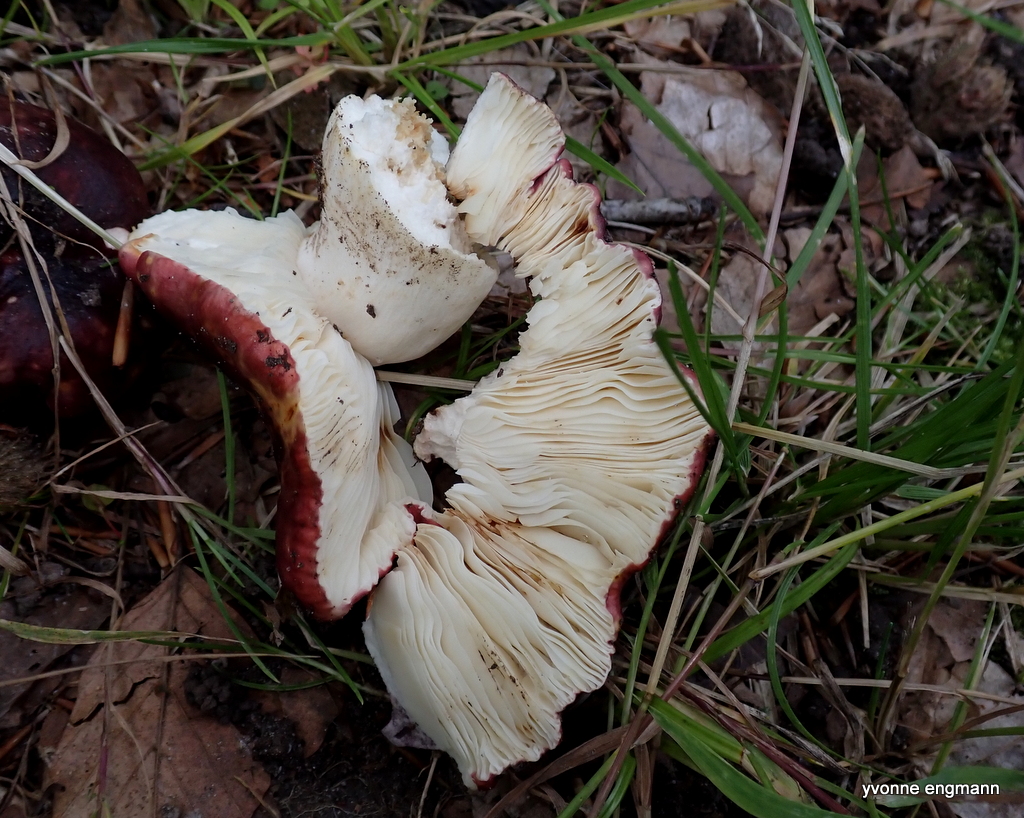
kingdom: Fungi
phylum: Basidiomycota
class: Agaricomycetes
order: Russulales
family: Russulaceae
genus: Russula
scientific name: Russula
